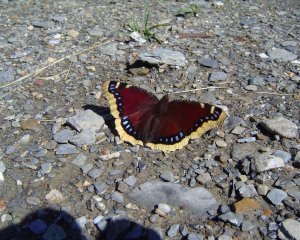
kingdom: Animalia
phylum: Arthropoda
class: Insecta
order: Lepidoptera
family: Nymphalidae
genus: Nymphalis
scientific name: Nymphalis antiopa
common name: Mourning Cloak
